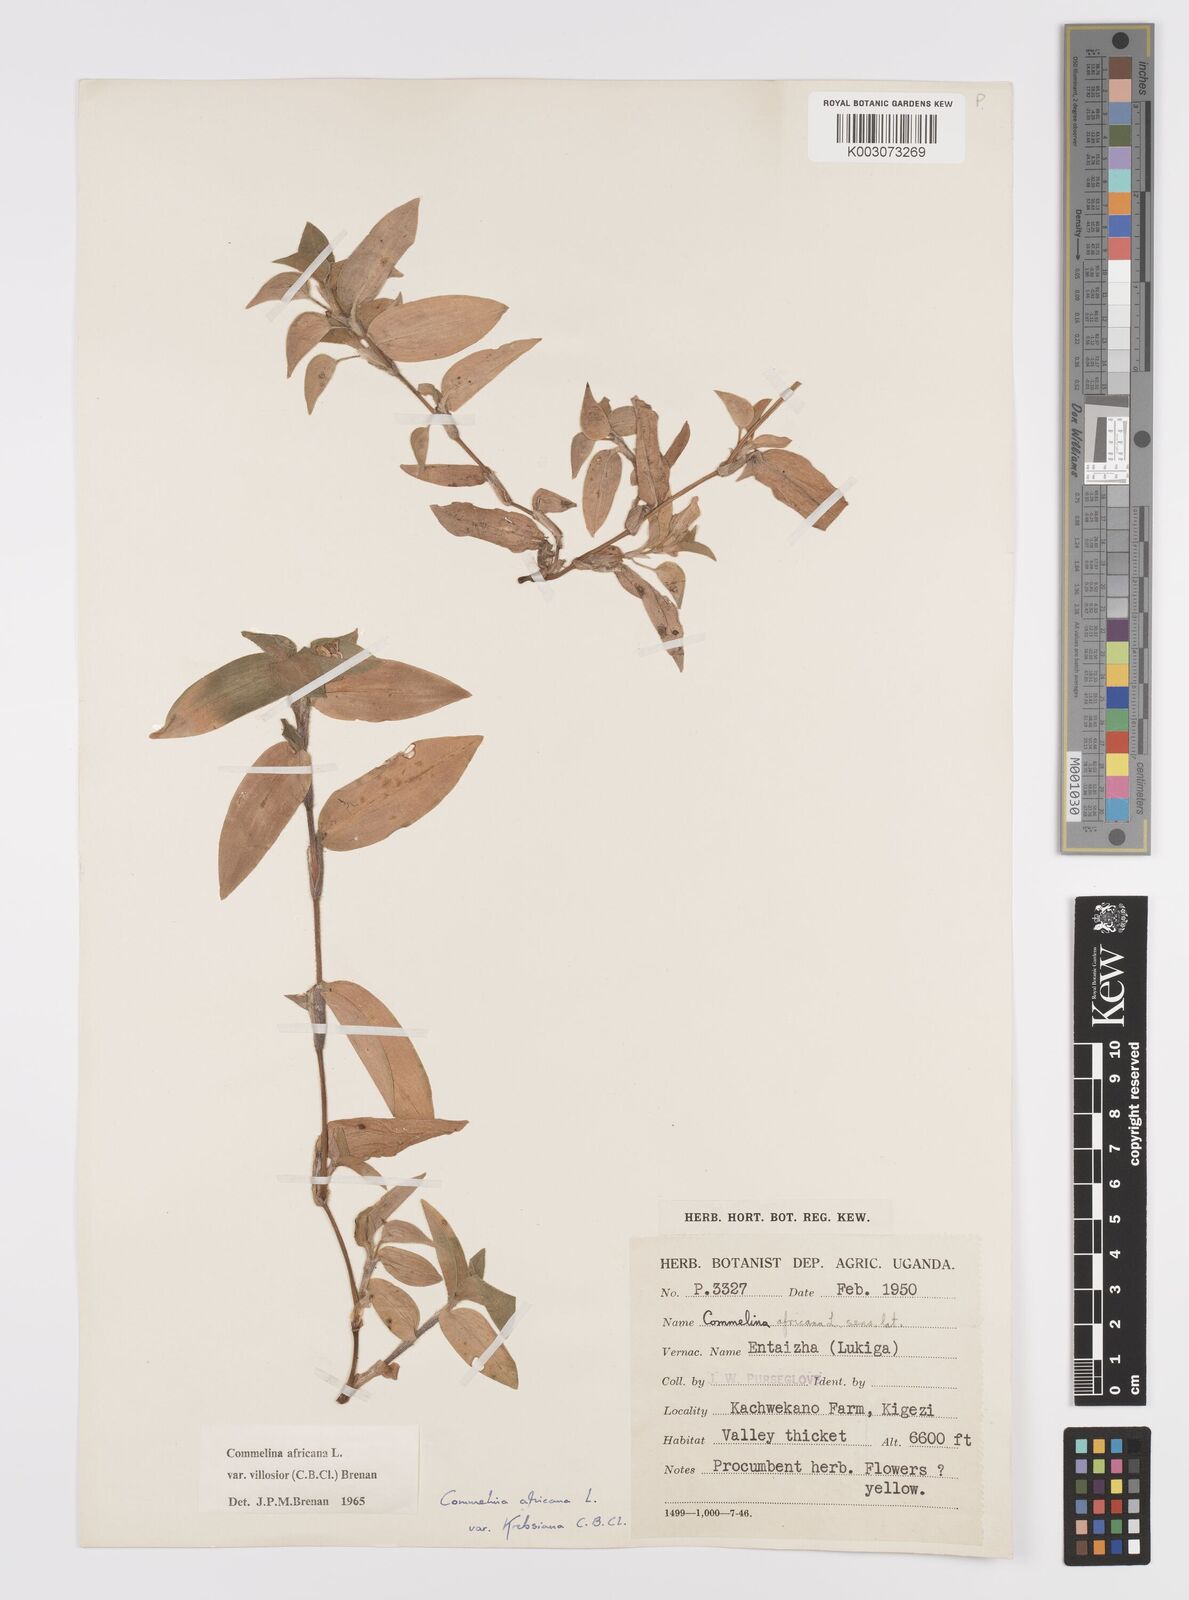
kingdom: Plantae
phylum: Tracheophyta
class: Liliopsida
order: Commelinales
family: Commelinaceae
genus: Commelina
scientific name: Commelina africana
